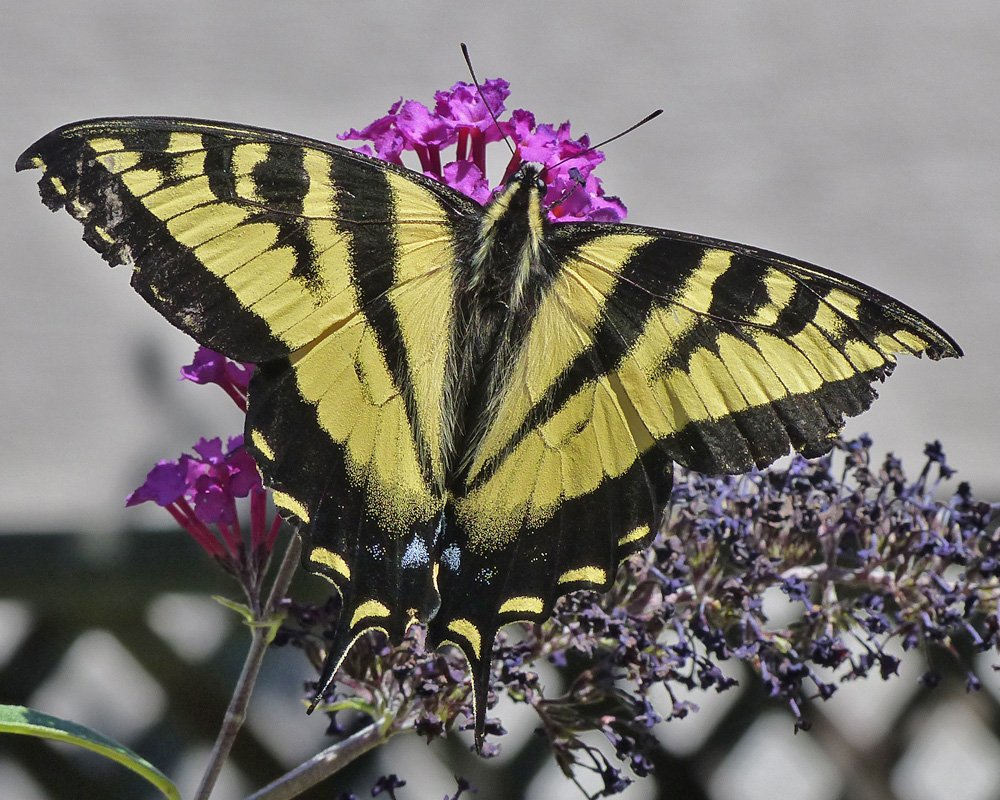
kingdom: Animalia
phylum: Arthropoda
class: Insecta
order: Lepidoptera
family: Papilionidae
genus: Pterourus
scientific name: Pterourus rutulus
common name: Western Tiger Swallowtail
